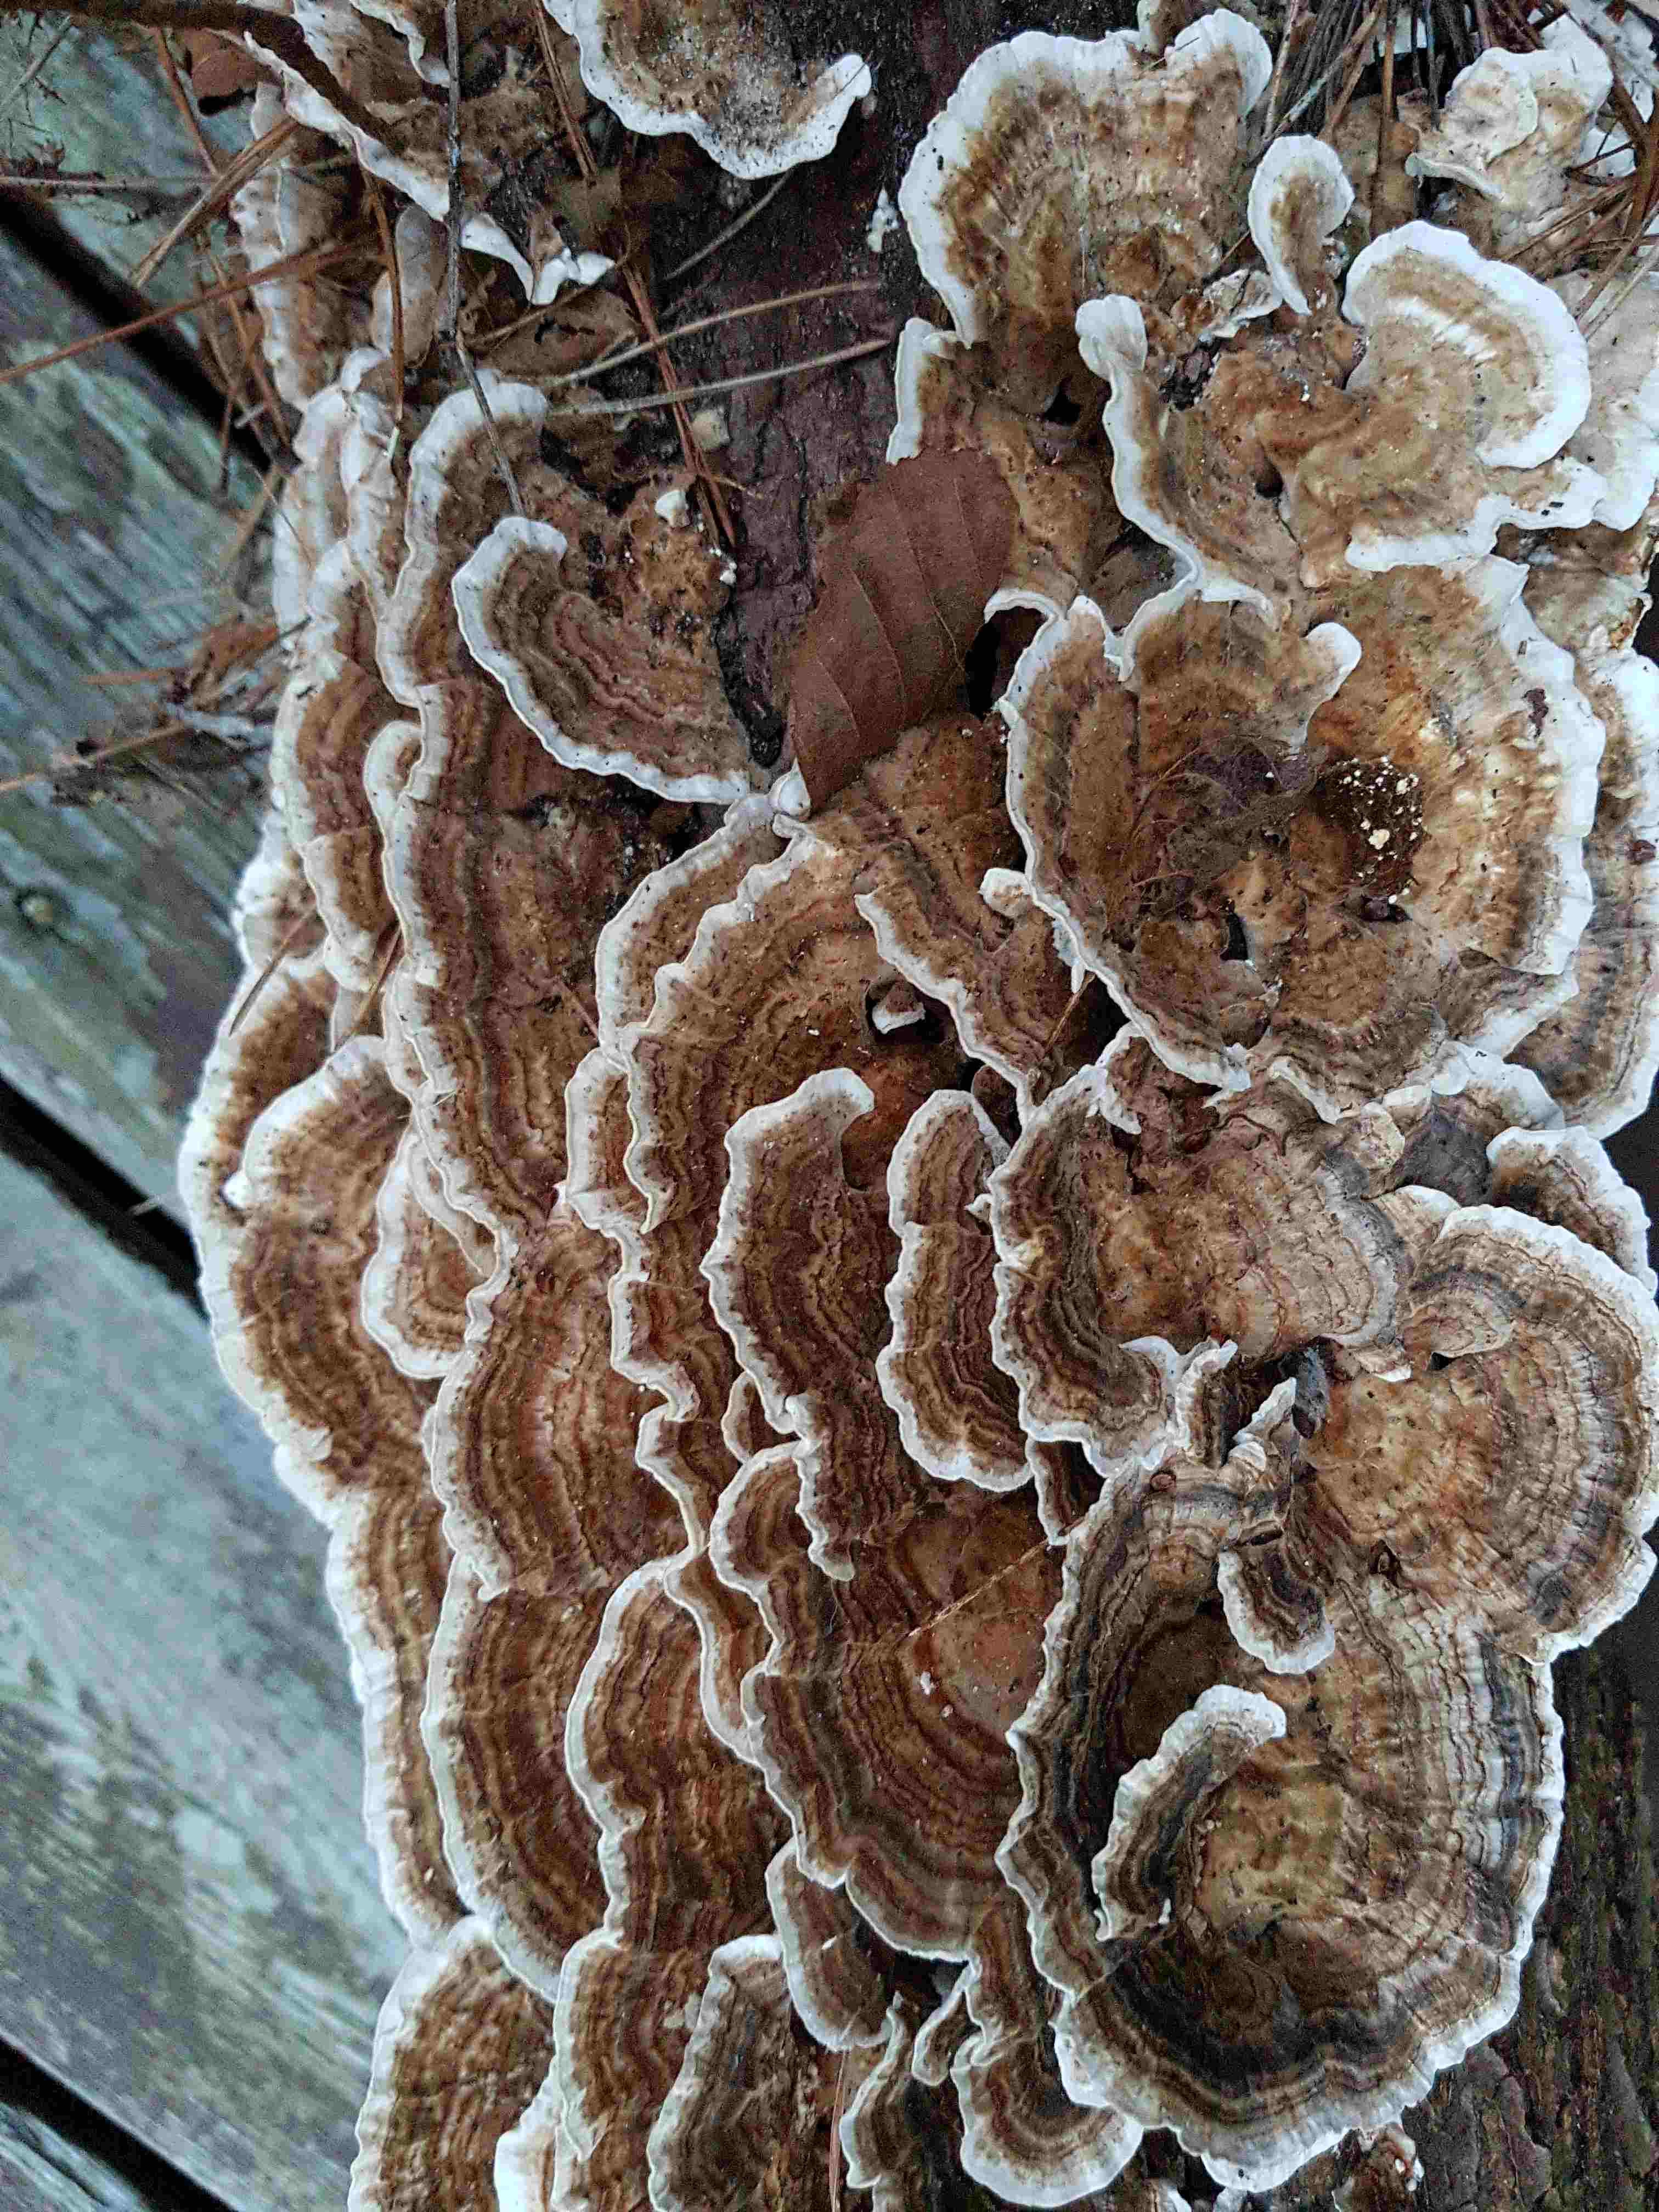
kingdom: Fungi
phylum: Basidiomycota
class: Agaricomycetes
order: Polyporales
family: Polyporaceae
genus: Trametes
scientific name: Trametes versicolor
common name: broget læderporesvamp
